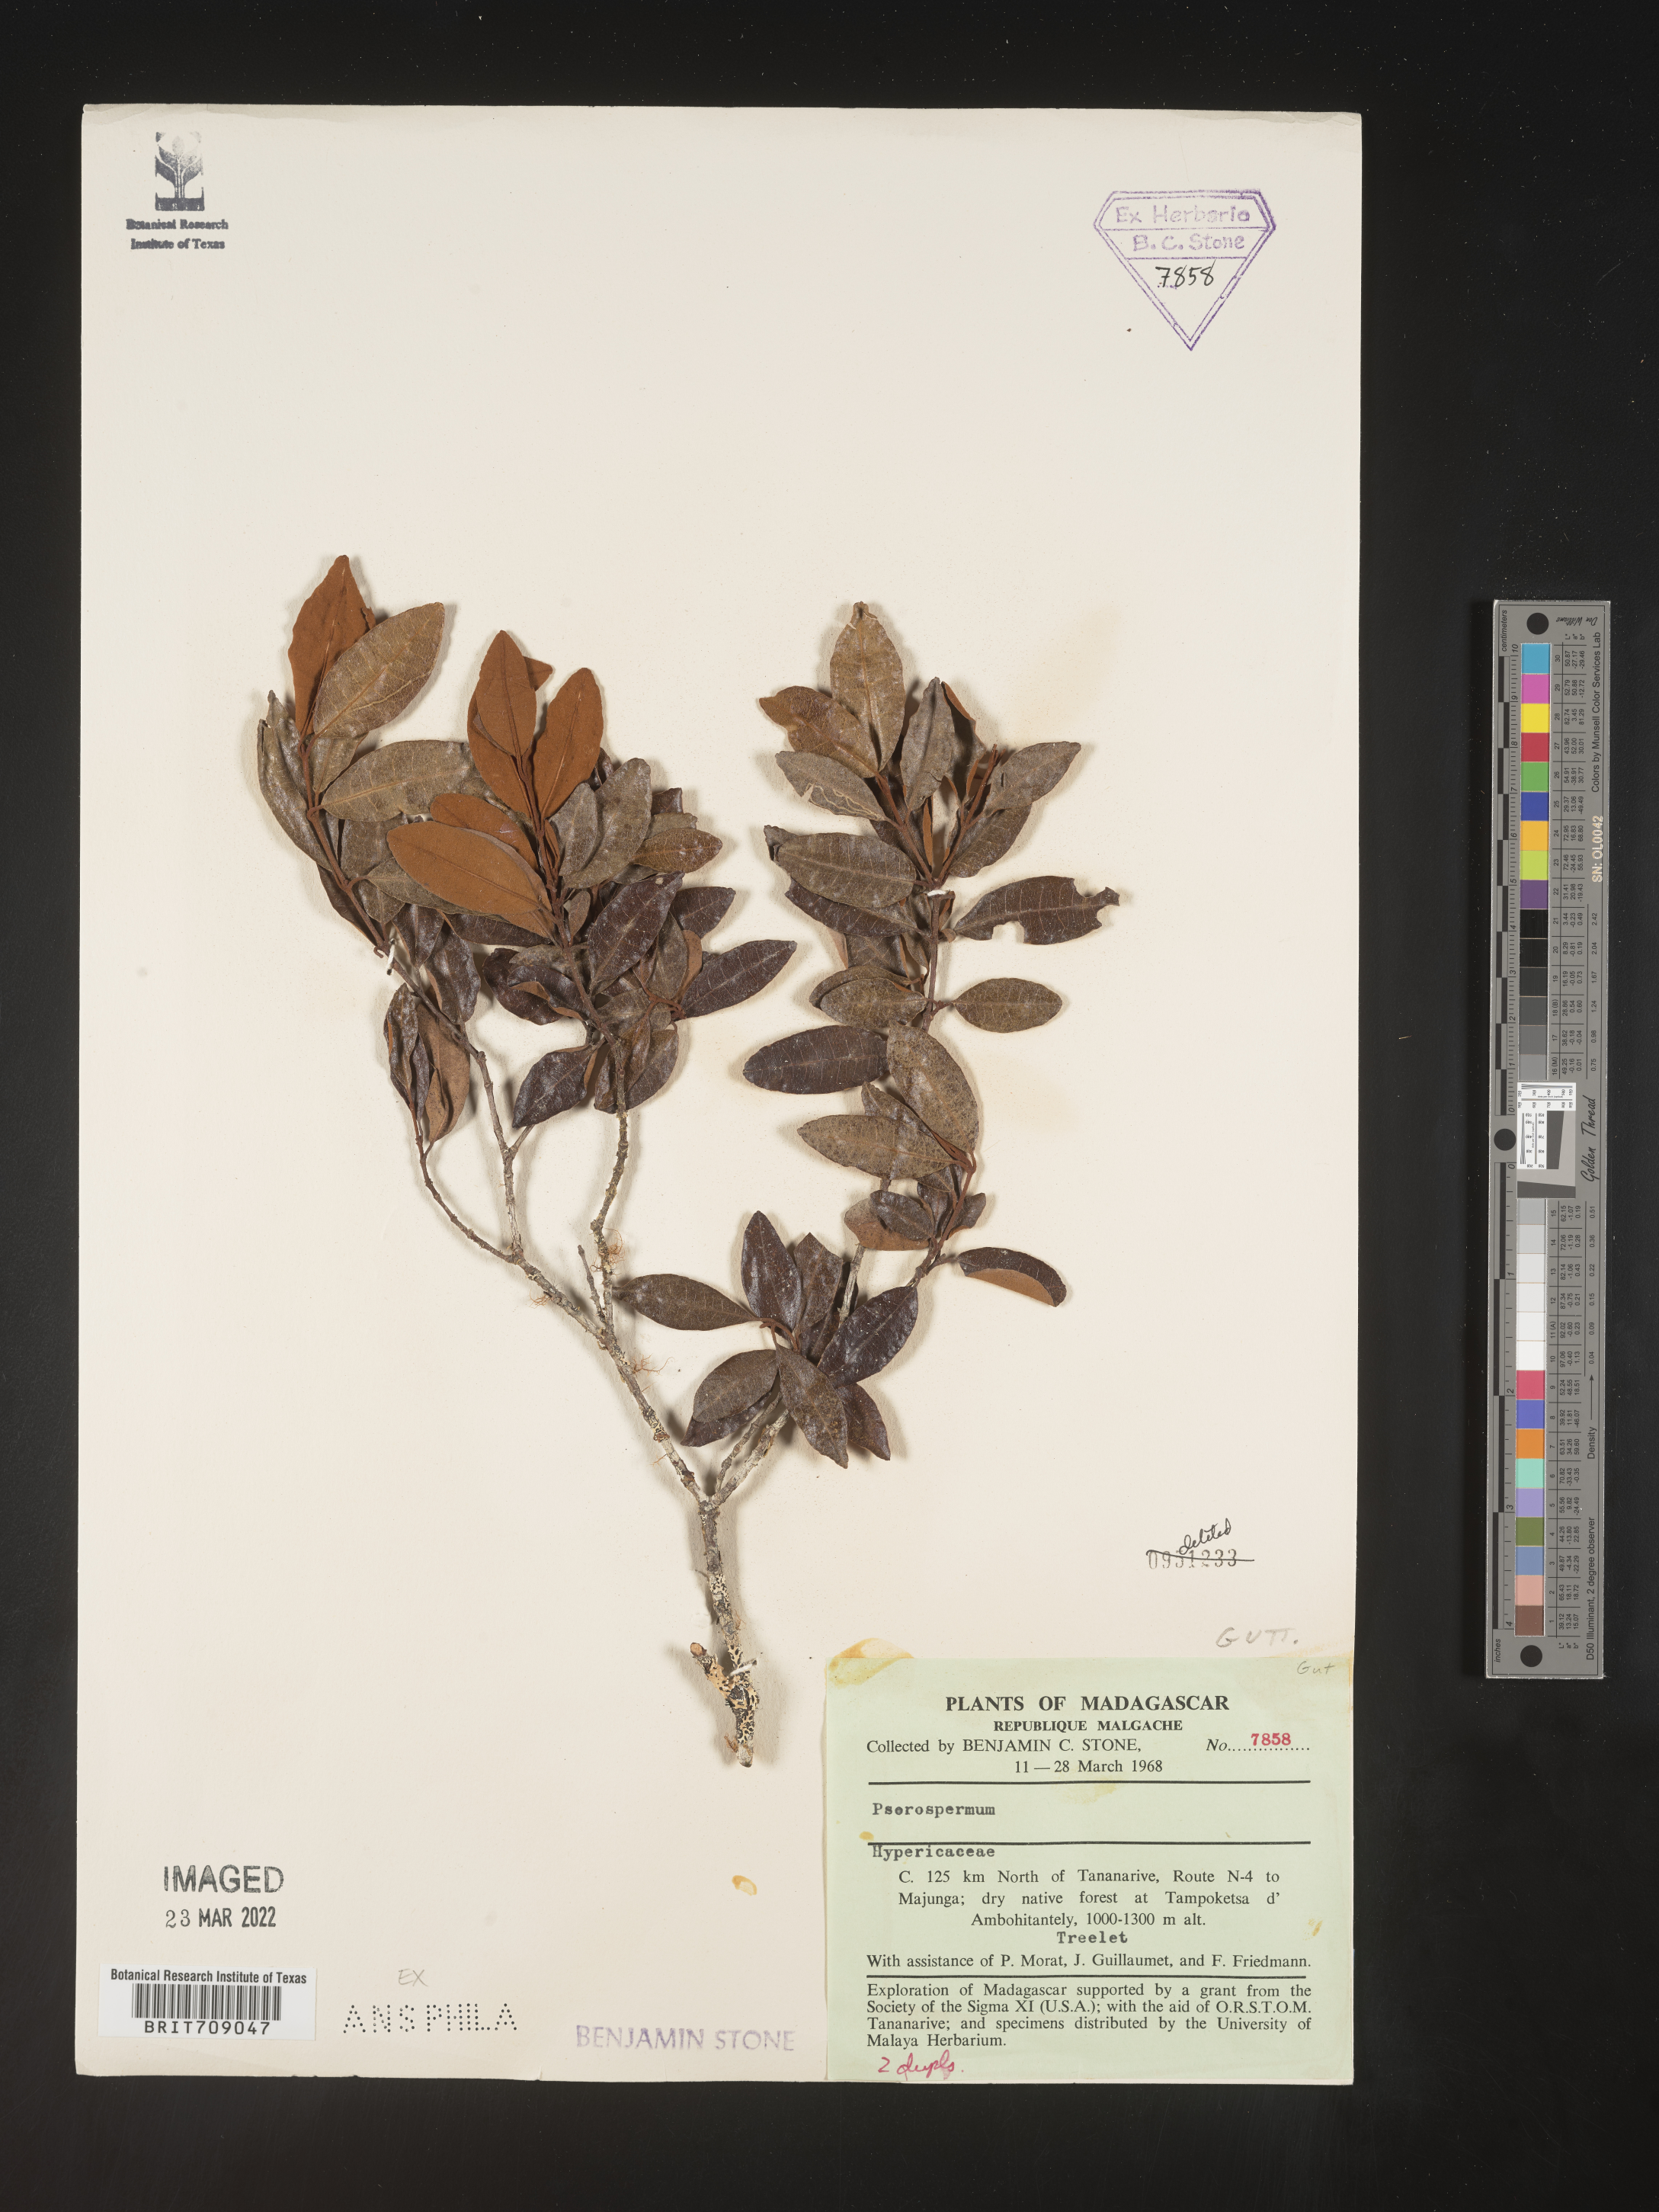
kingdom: Plantae
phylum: Tracheophyta
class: Magnoliopsida
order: Malpighiales
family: Hypericaceae
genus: Psorospermum
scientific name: Psorospermum
